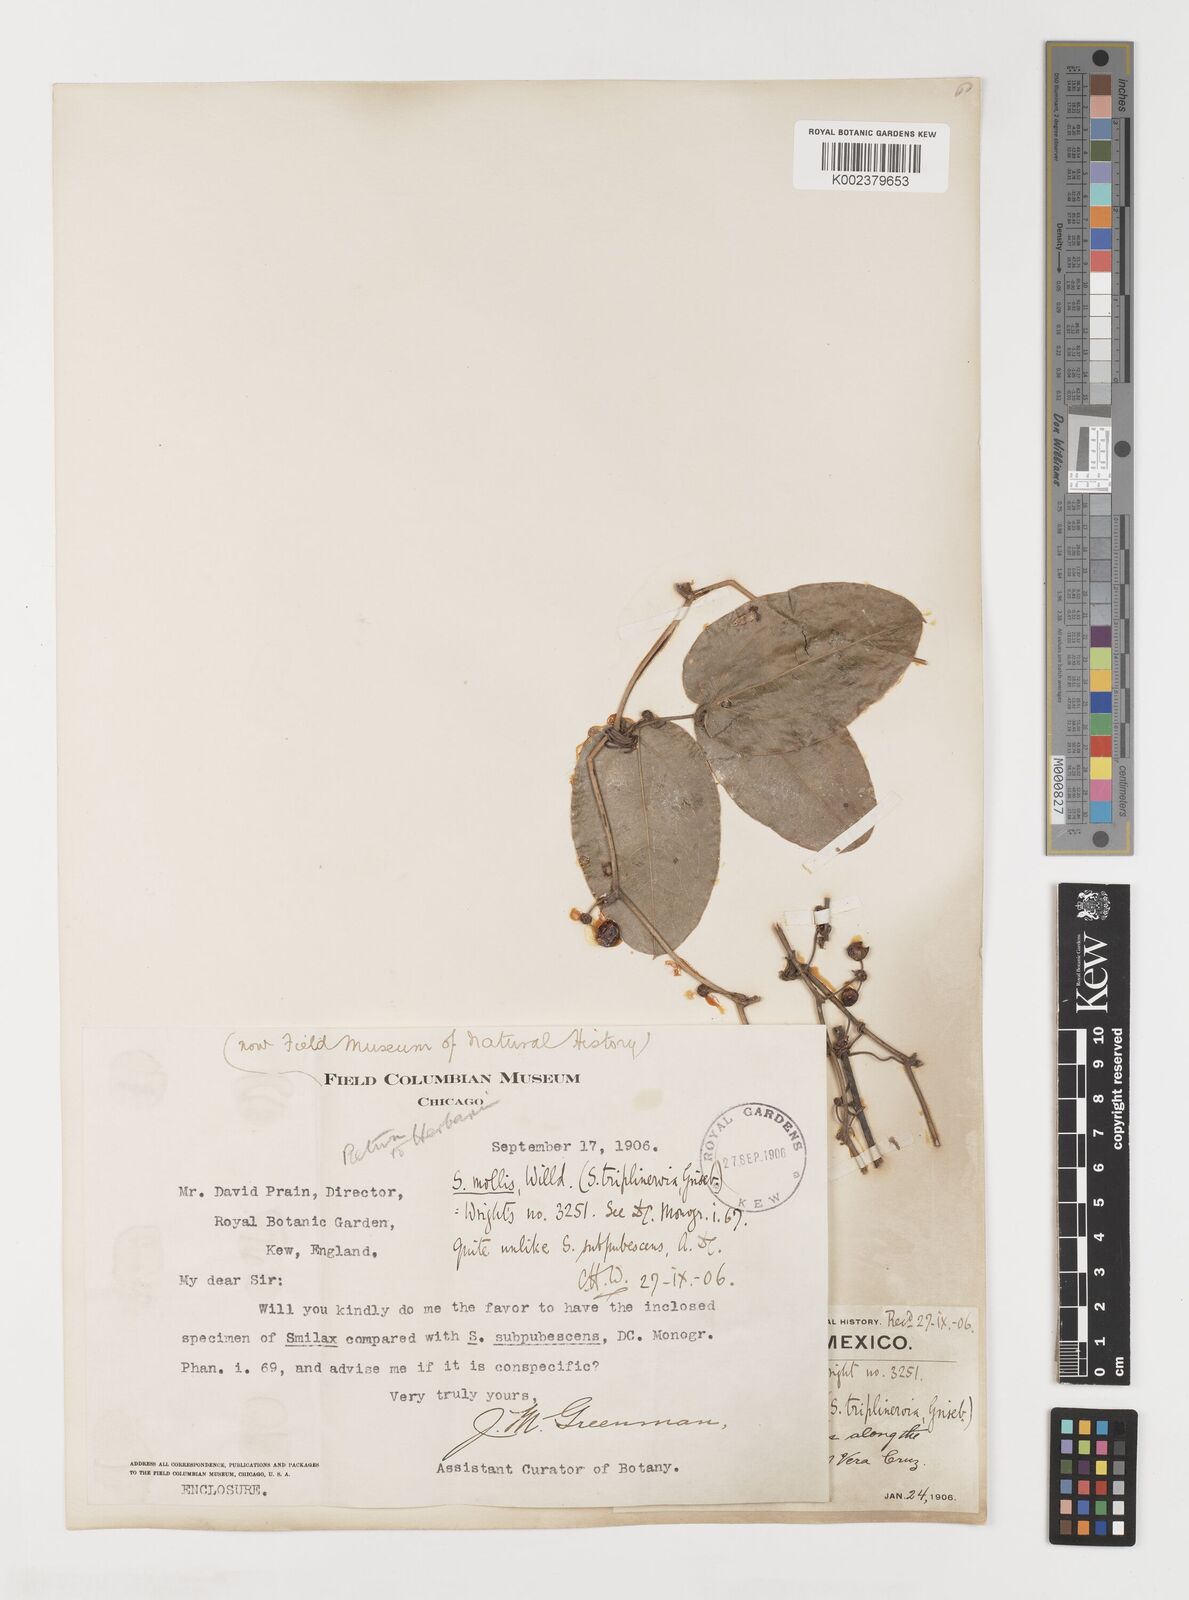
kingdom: Plantae
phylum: Tracheophyta
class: Liliopsida
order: Liliales
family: Smilacaceae
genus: Smilax
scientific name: Smilax mollis
